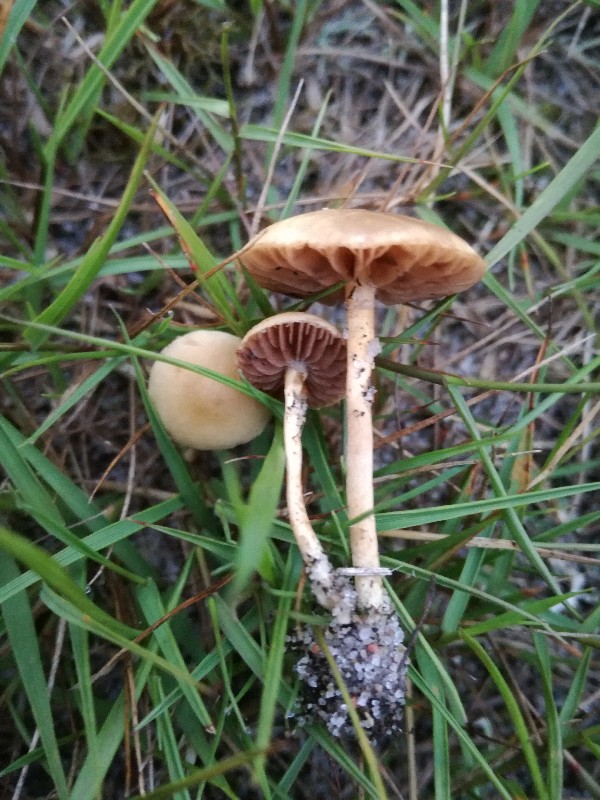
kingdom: Fungi
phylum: Basidiomycota
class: Agaricomycetes
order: Agaricales
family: Strophariaceae
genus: Agrocybe
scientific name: Agrocybe pediades
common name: almindelig agerhat
